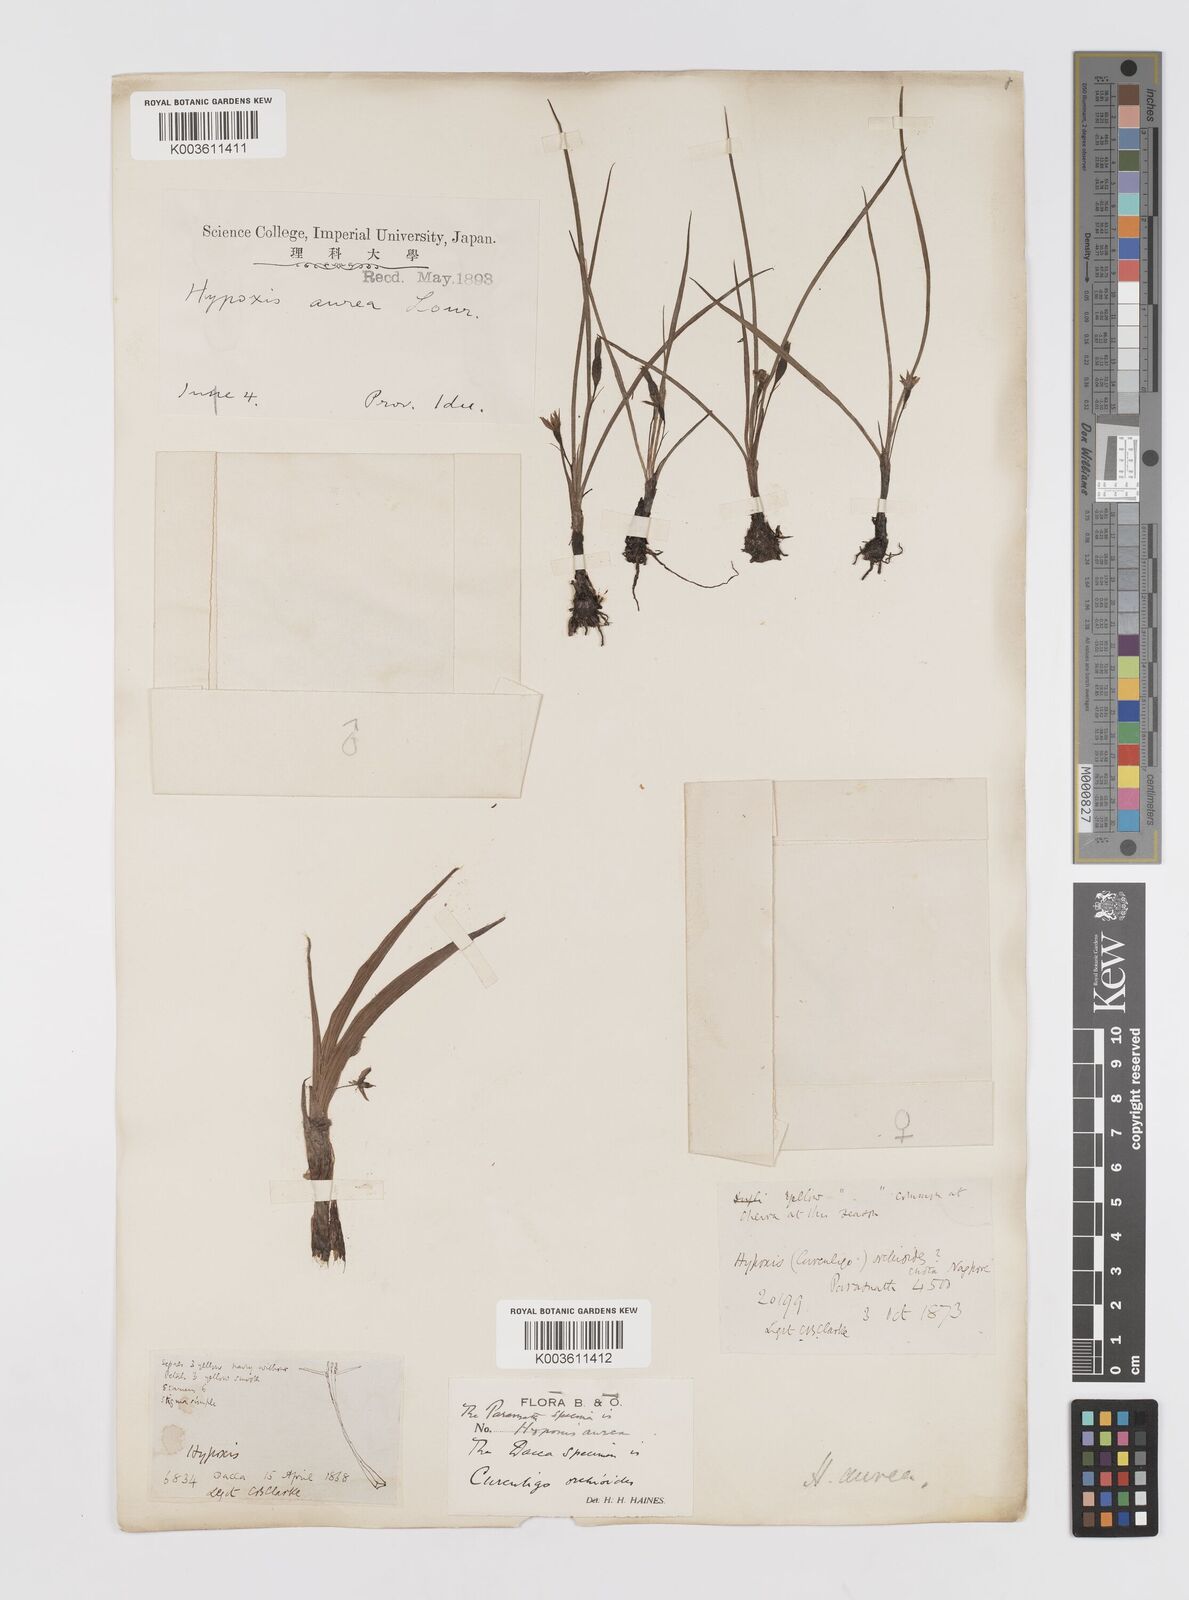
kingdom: Plantae
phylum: Tracheophyta
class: Liliopsida
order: Asparagales
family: Hypoxidaceae
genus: Hypoxis
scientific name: Hypoxis aurea
